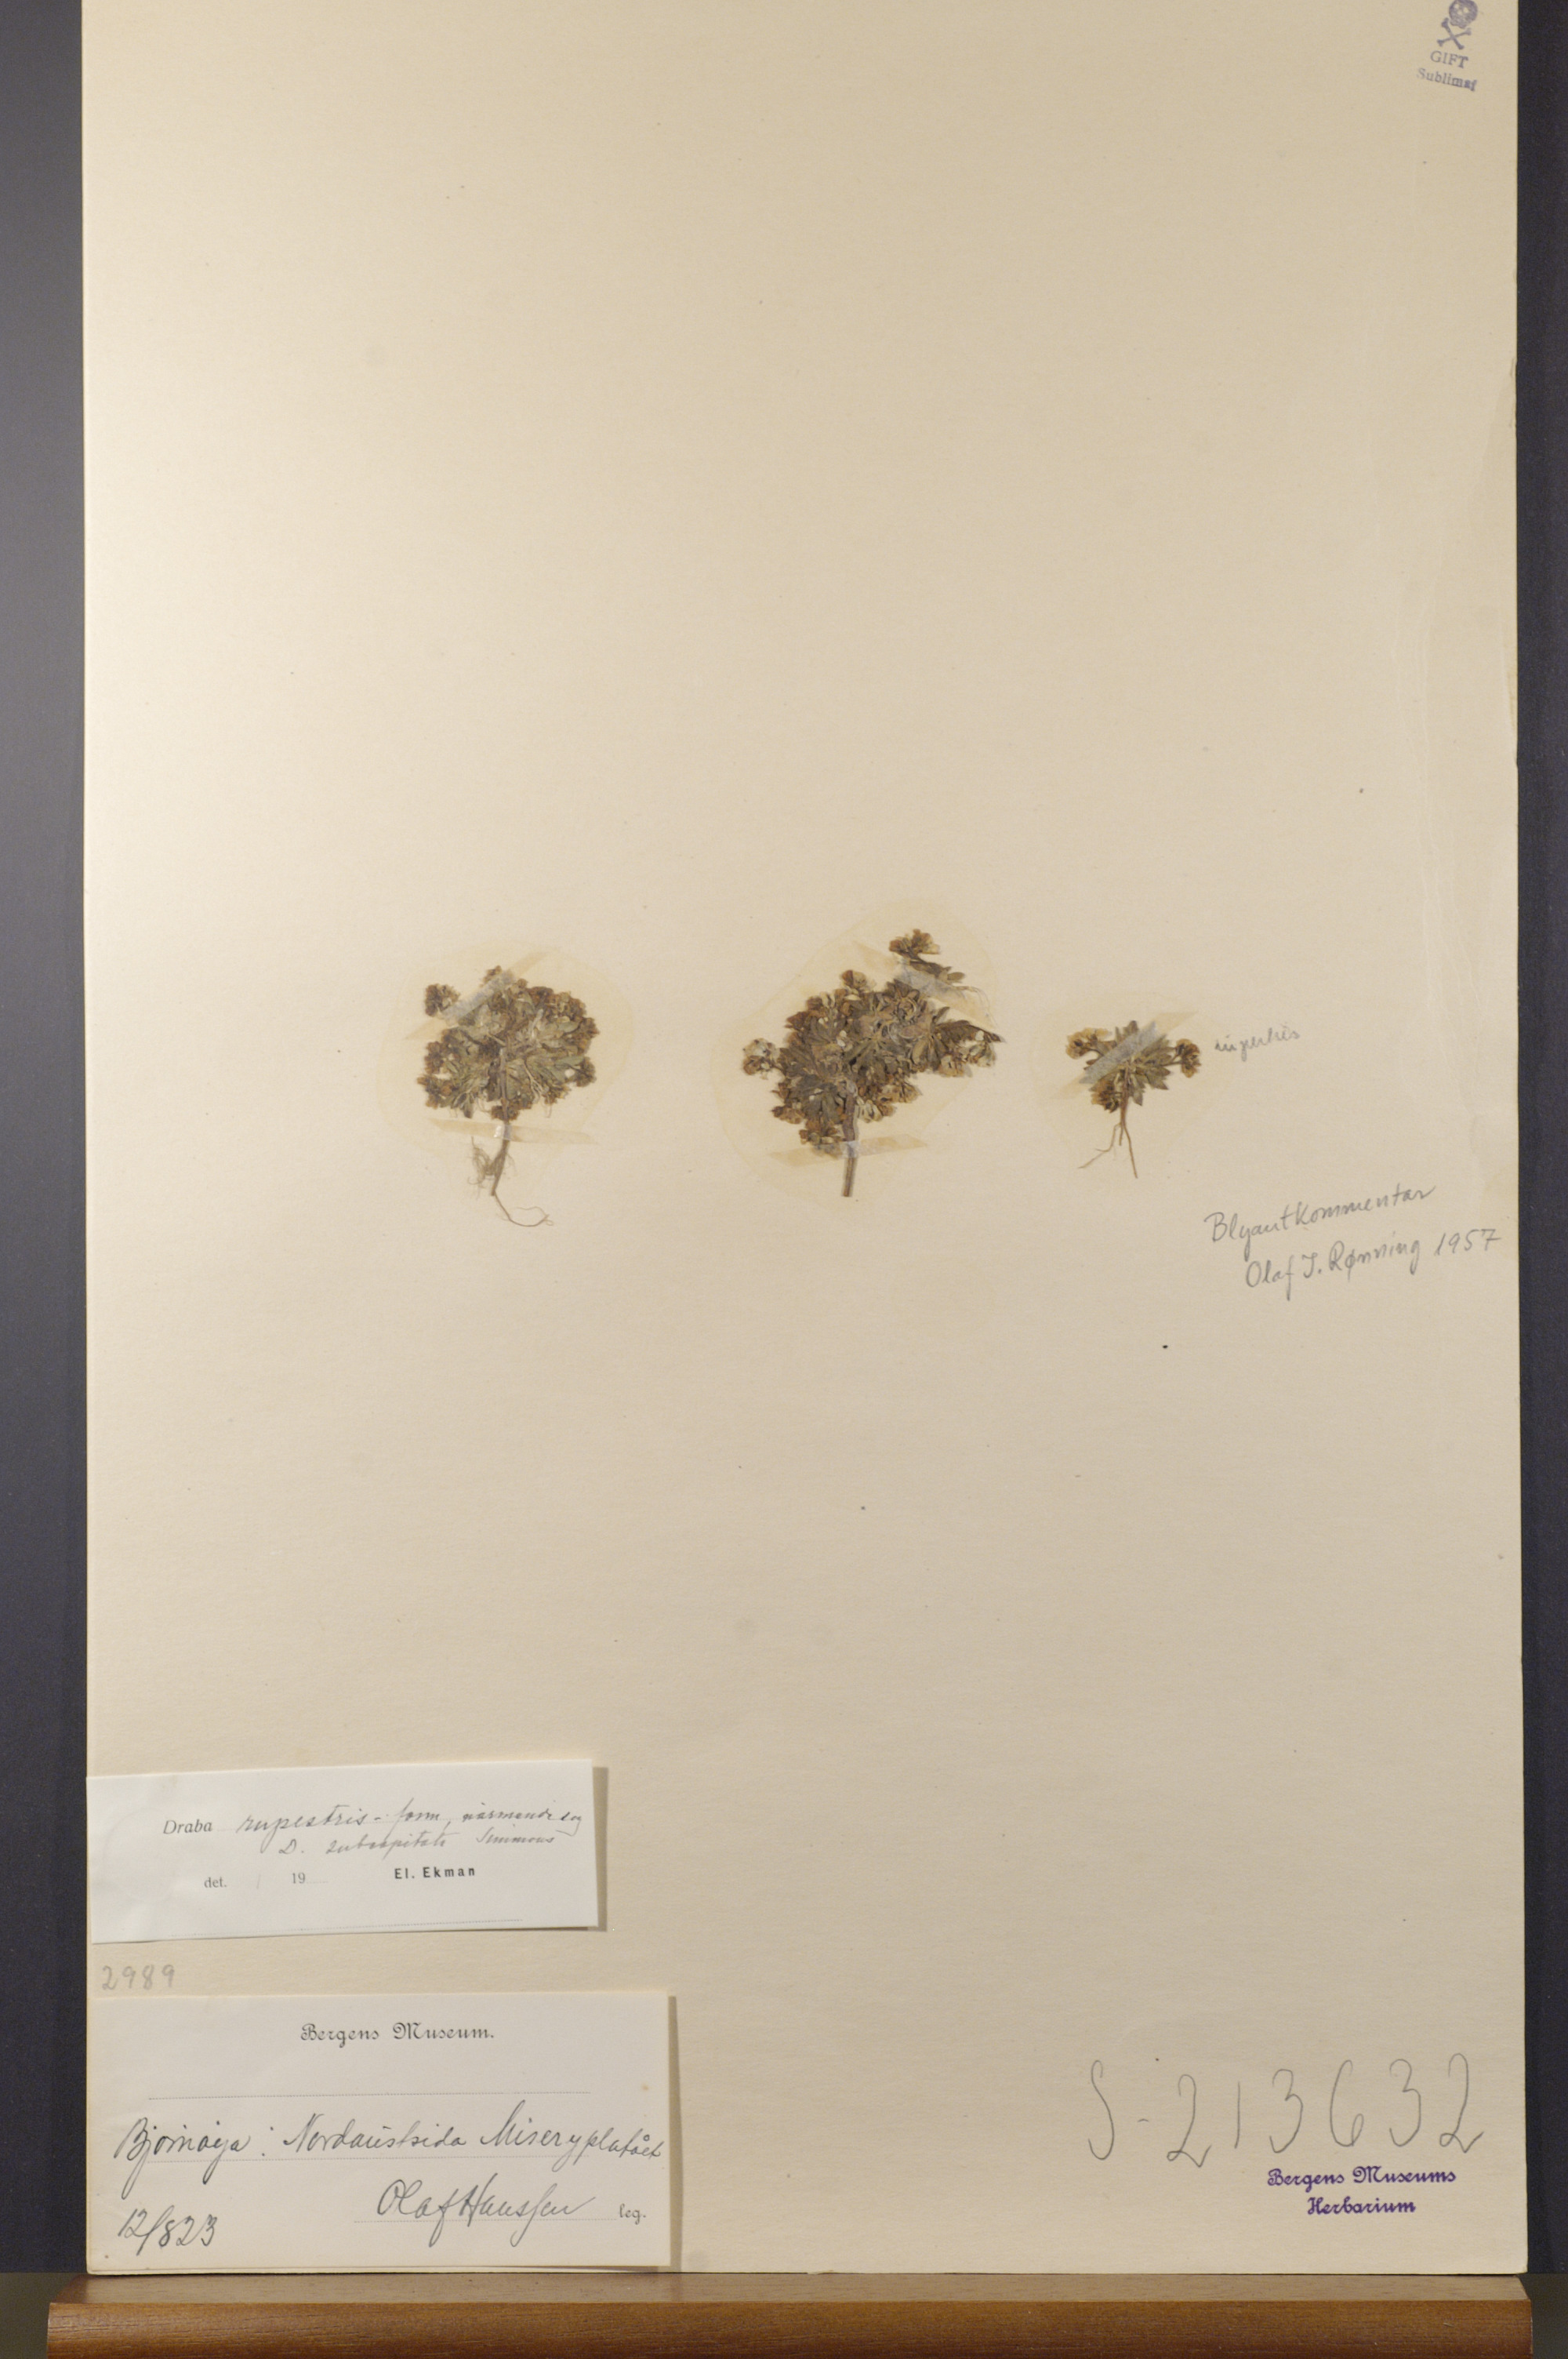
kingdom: Plantae
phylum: Tracheophyta
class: Magnoliopsida
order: Brassicales
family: Brassicaceae
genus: Draba
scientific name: Draba norvegica
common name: Rock whitlowgrass
